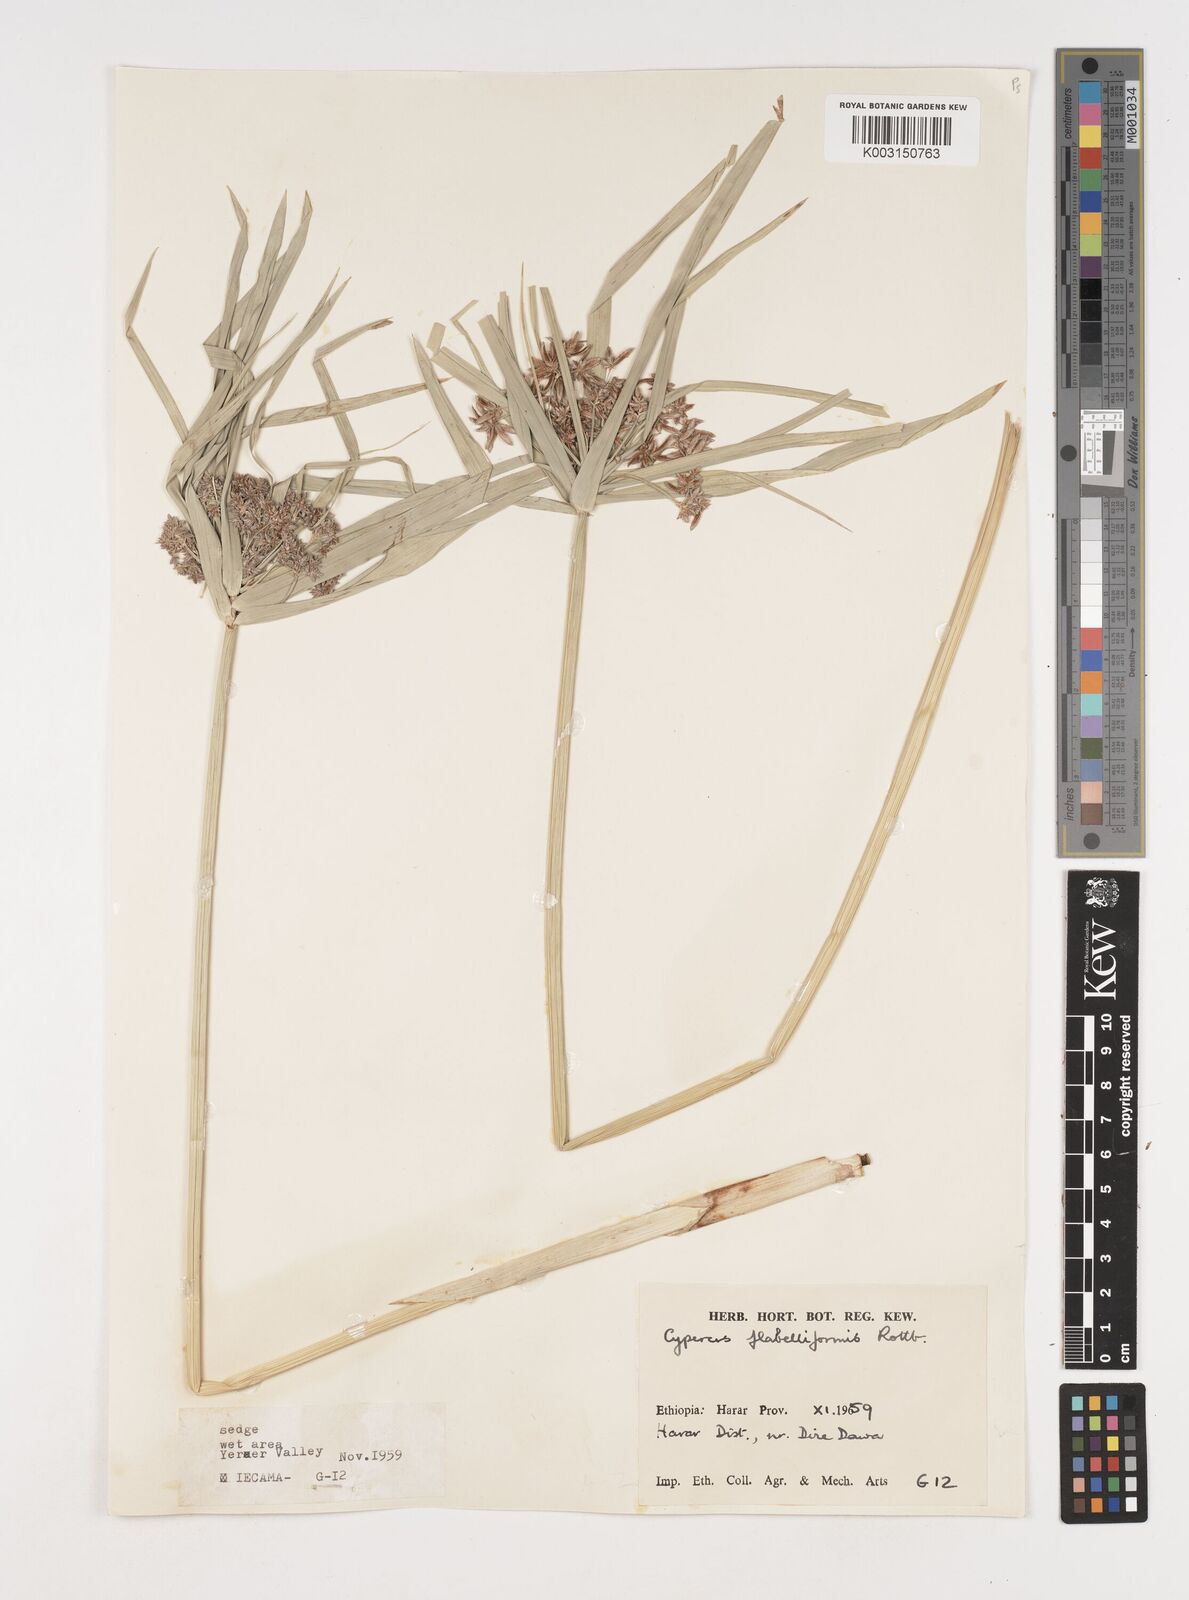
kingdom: Plantae
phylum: Tracheophyta
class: Liliopsida
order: Poales
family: Cyperaceae
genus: Cyperus
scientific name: Cyperus alternifolius
